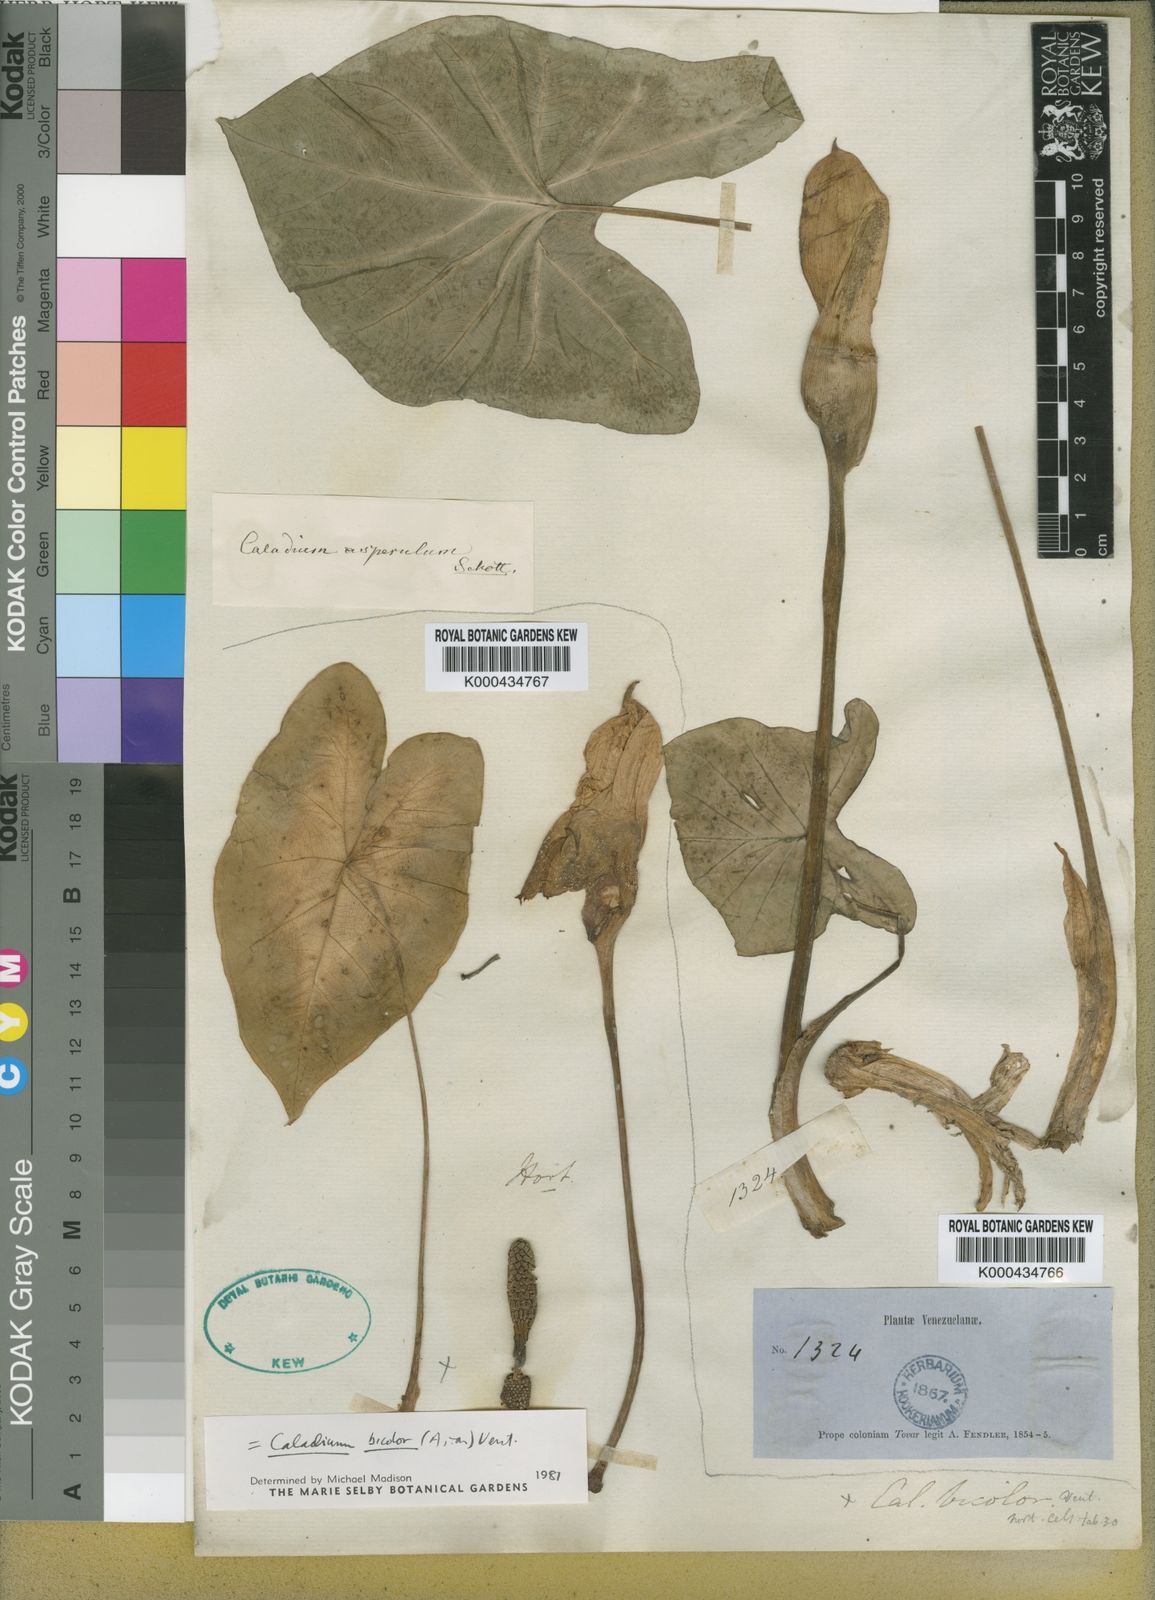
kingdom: Plantae
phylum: Tracheophyta
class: Liliopsida
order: Alismatales
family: Araceae
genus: Caladium
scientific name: Caladium bicolor
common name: Artist's pallet
